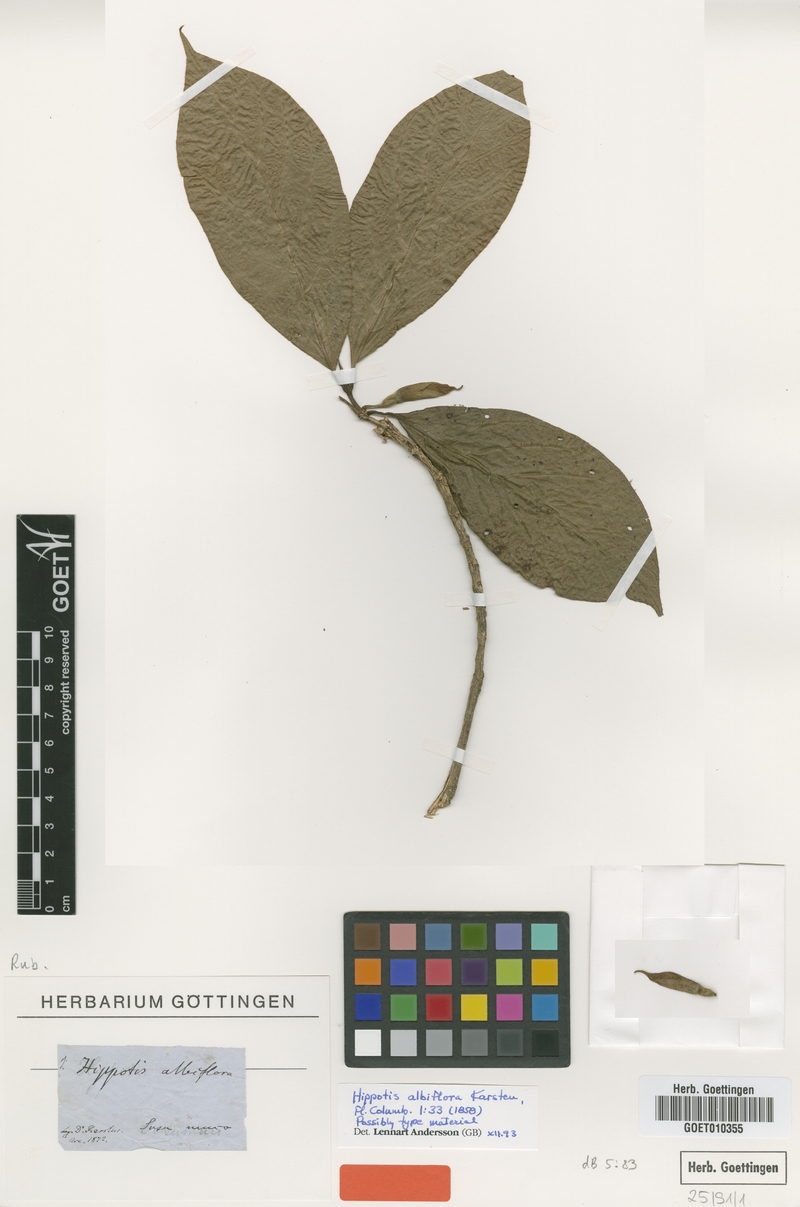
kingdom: Plantae
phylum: Tracheophyta
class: Magnoliopsida
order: Gentianales
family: Rubiaceae
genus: Hippotis
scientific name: Hippotis albiflora
